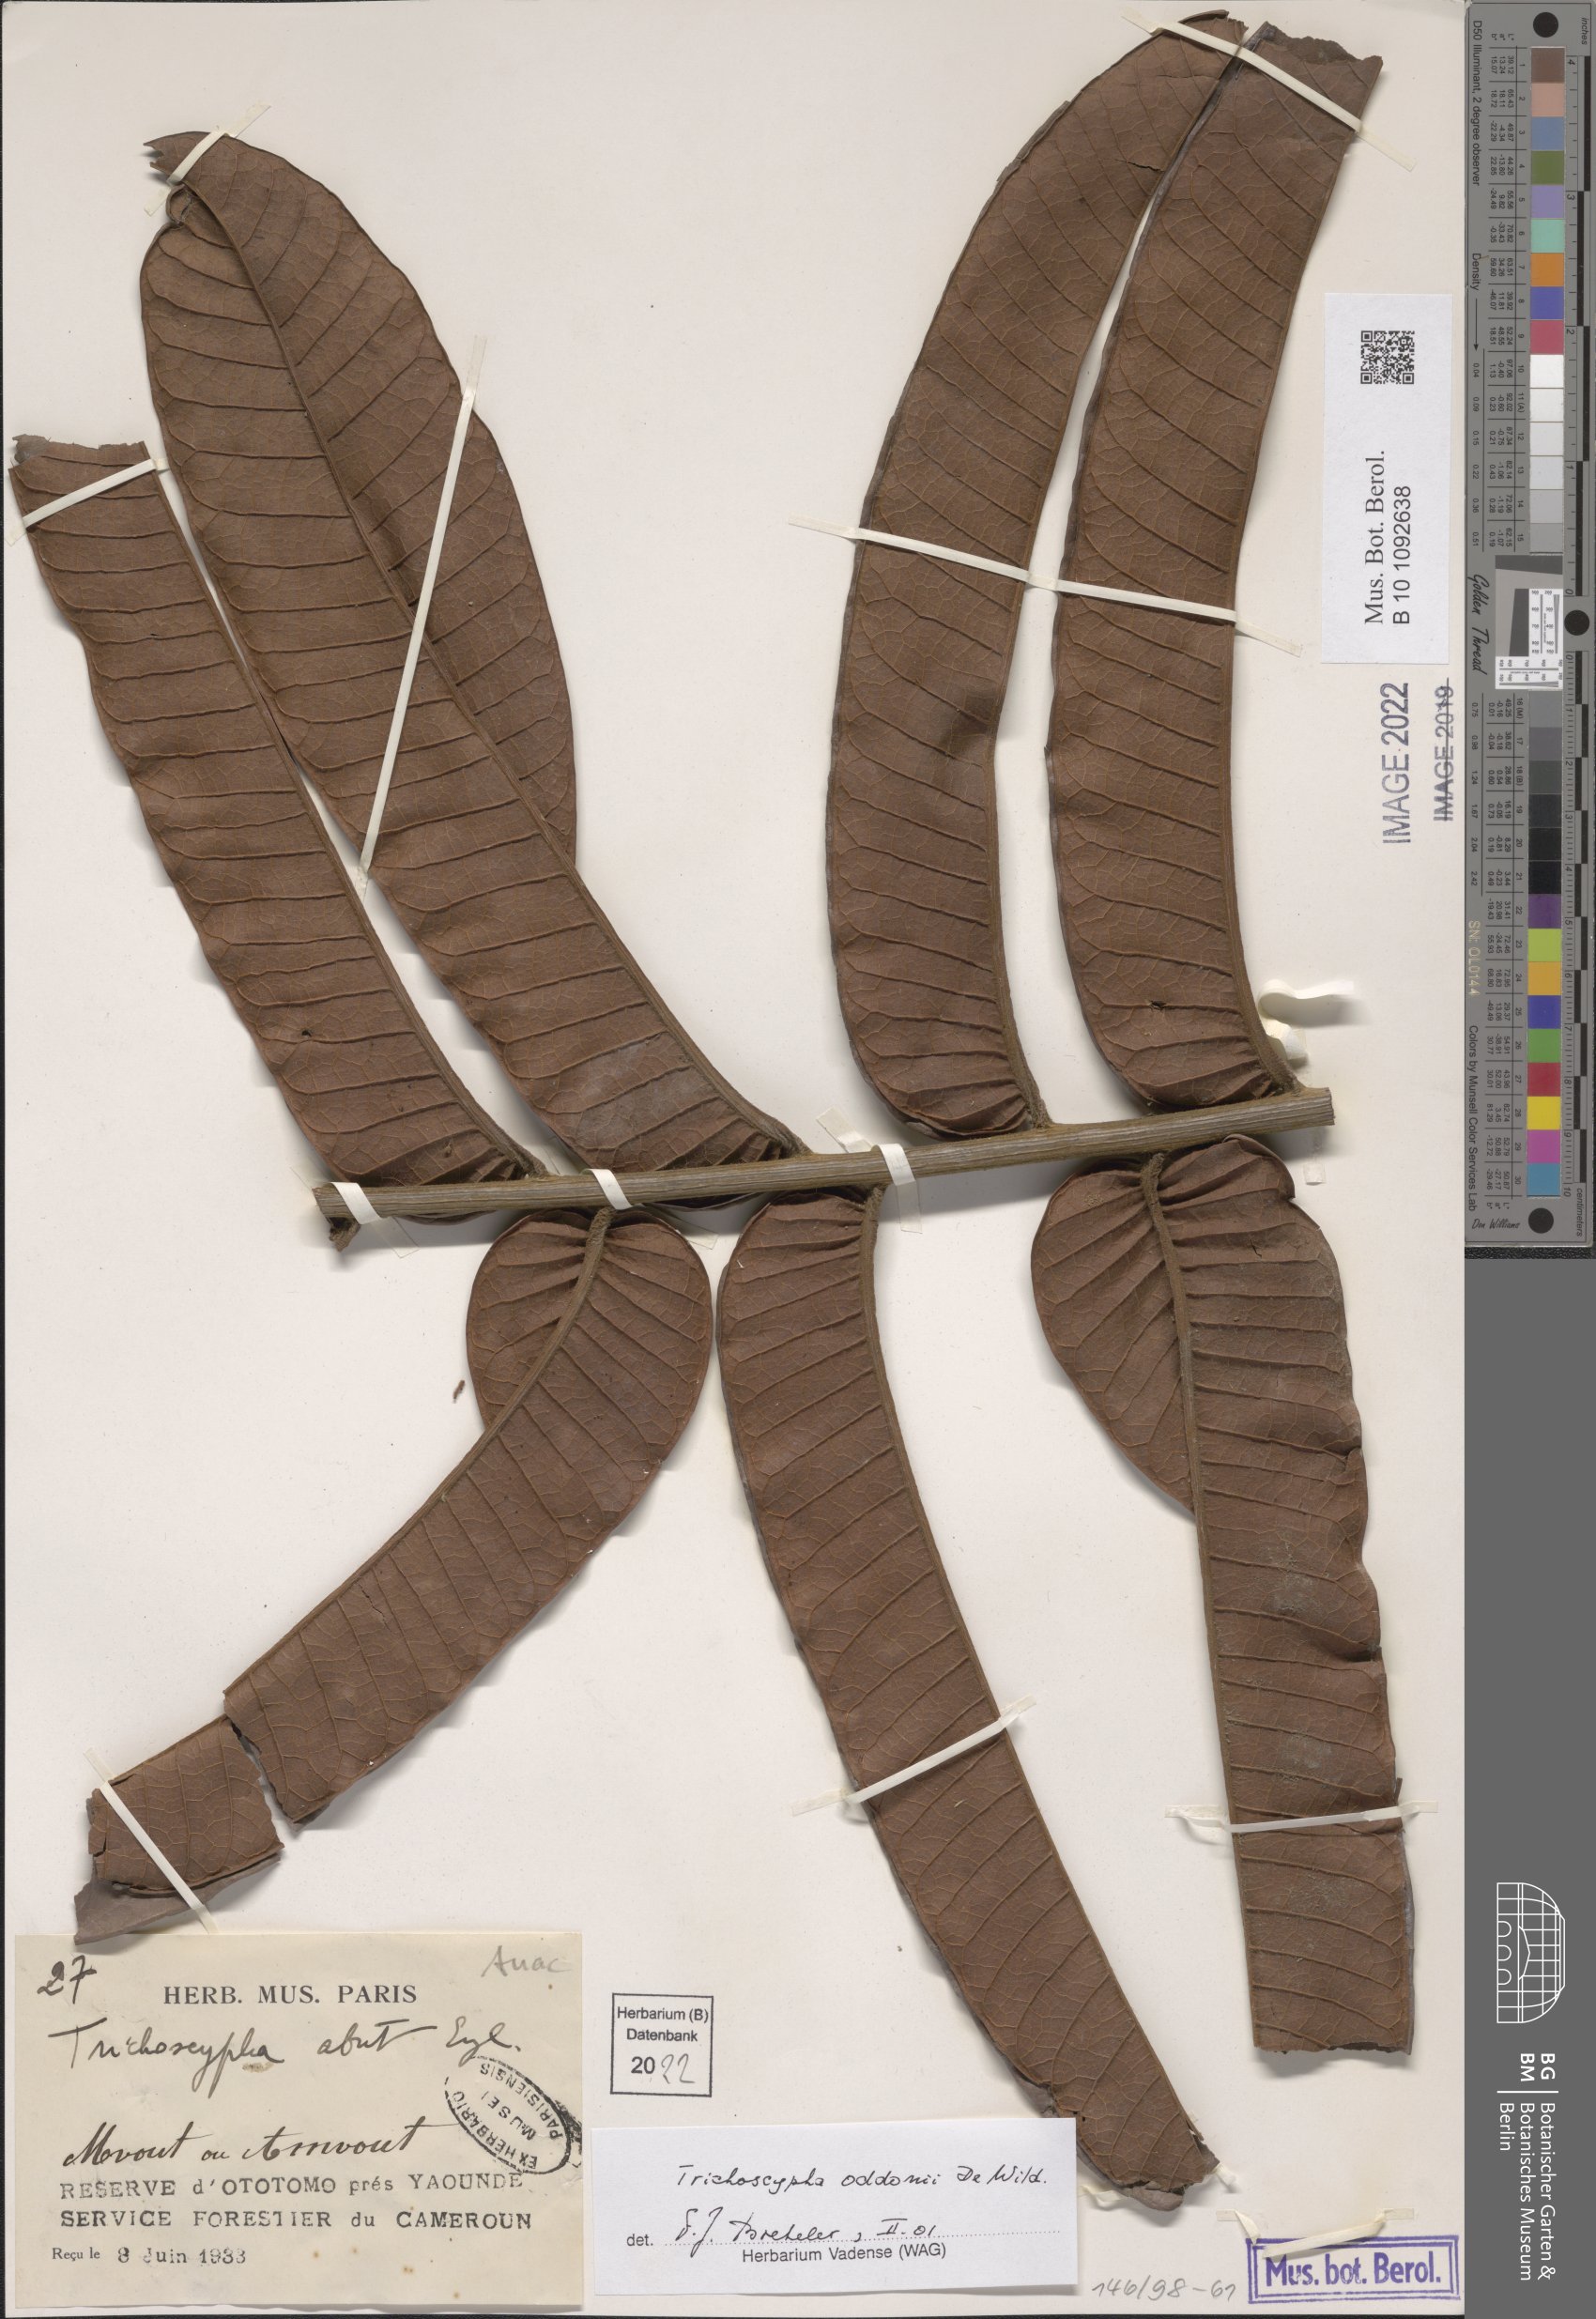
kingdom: Plantae
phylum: Tracheophyta
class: Magnoliopsida
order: Sapindales
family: Anacardiaceae
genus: Trichoscypha
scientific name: Trichoscypha oddonii
